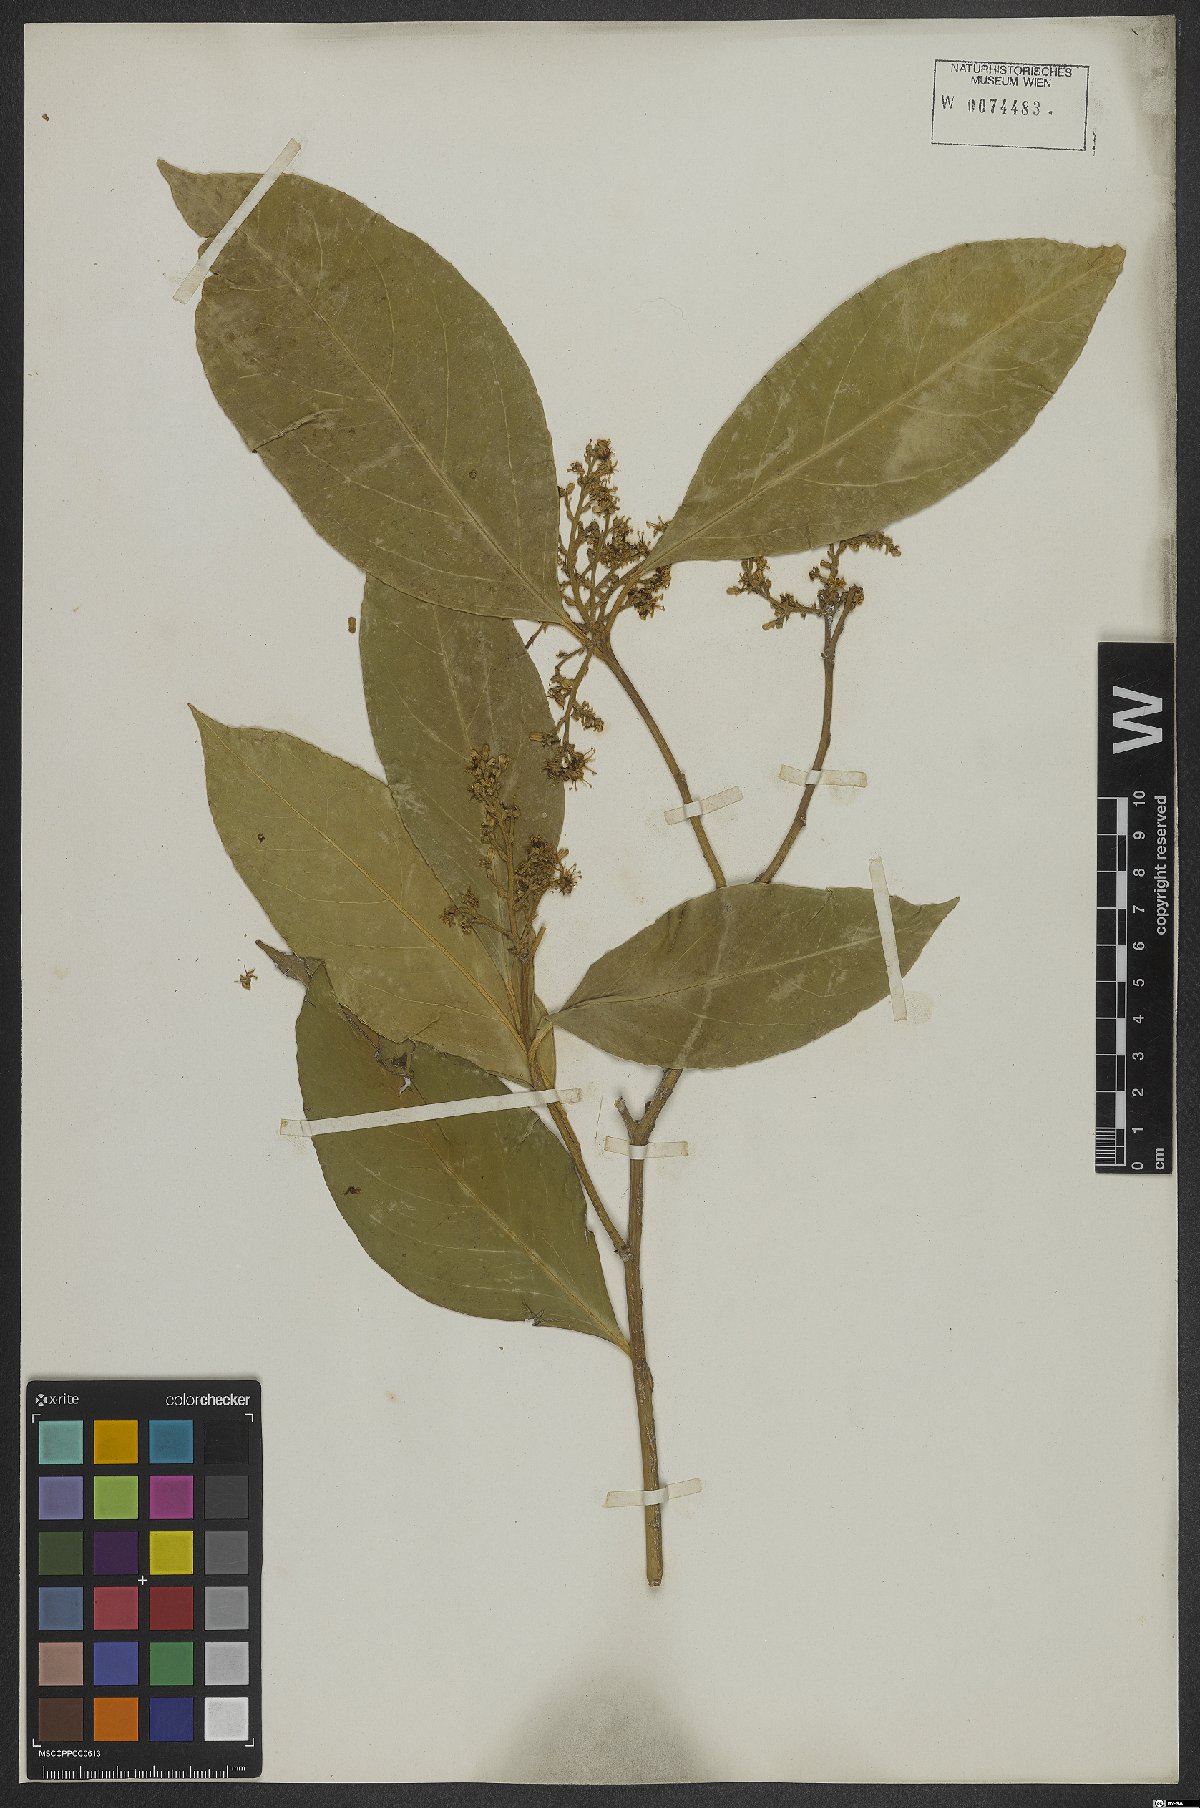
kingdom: Plantae
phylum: Tracheophyta
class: Magnoliopsida
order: Cardiopteridales
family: Cardiopteridaceae
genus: Citronella
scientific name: Citronella paniculata
